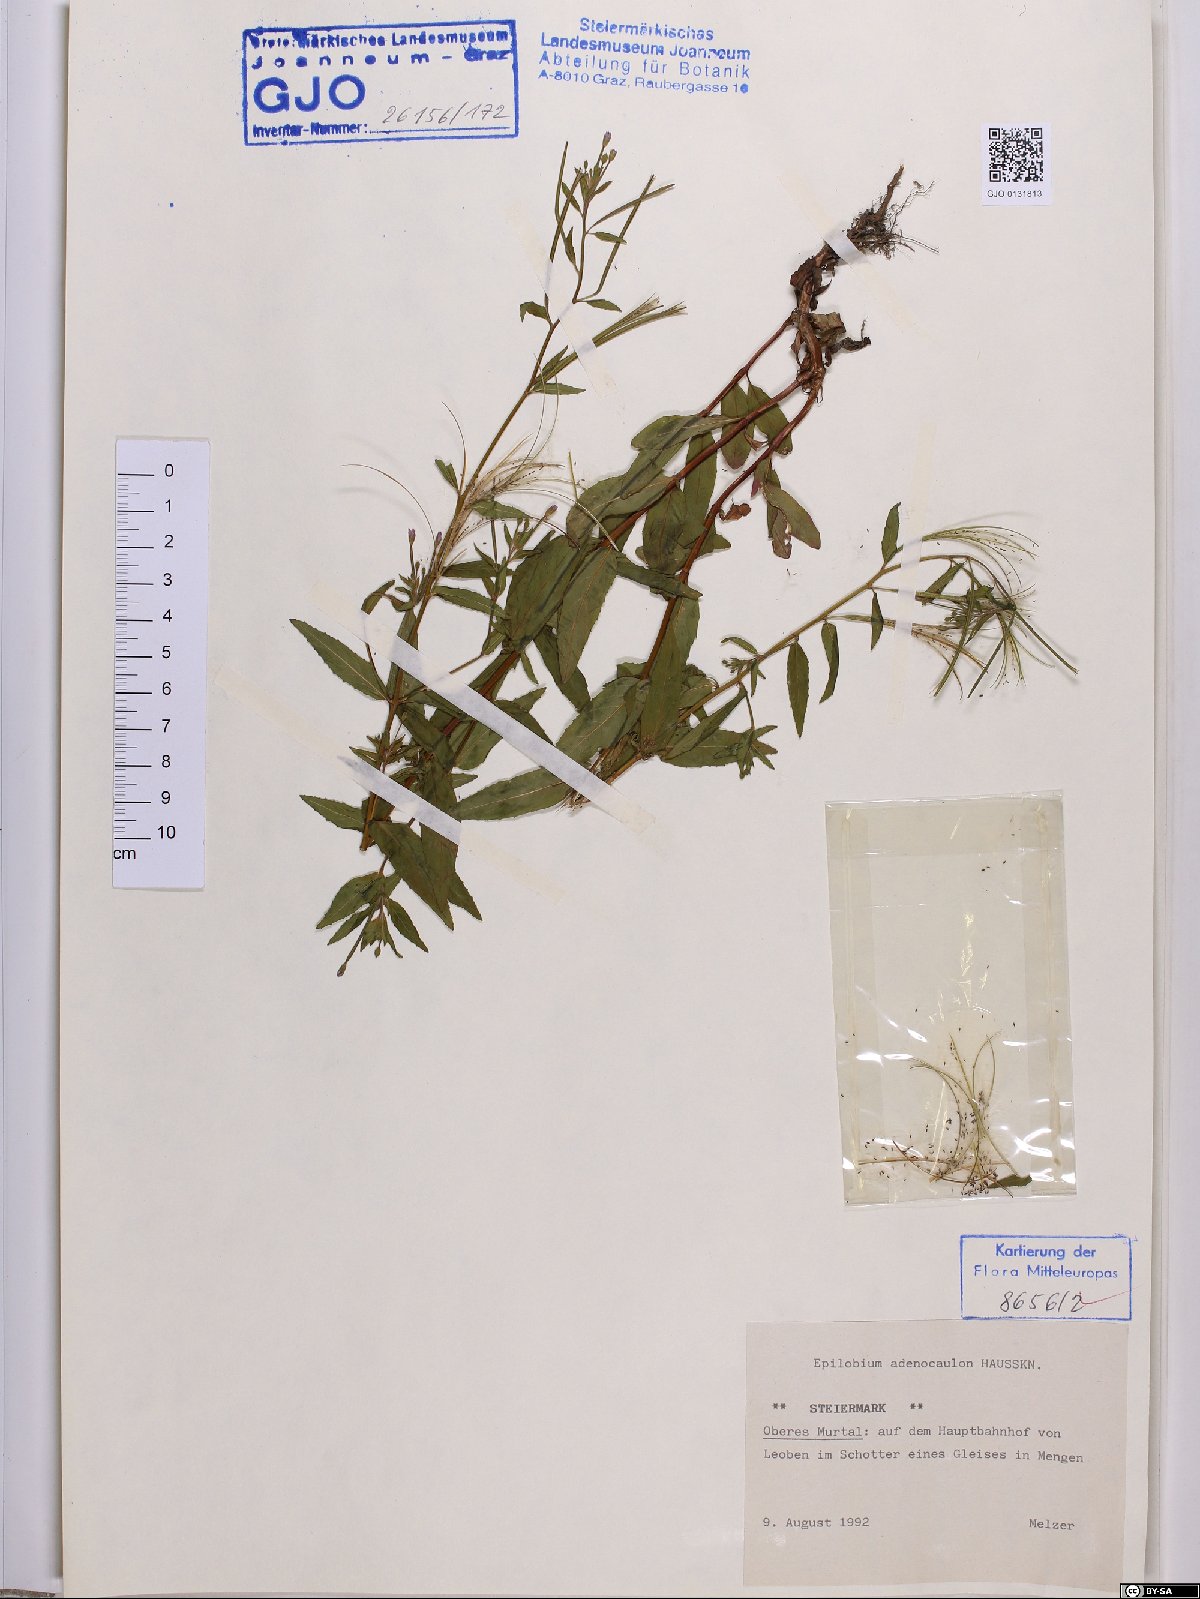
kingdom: Plantae
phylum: Tracheophyta
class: Magnoliopsida
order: Myrtales
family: Onagraceae
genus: Epilobium
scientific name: Epilobium ciliatum
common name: American willowherb
